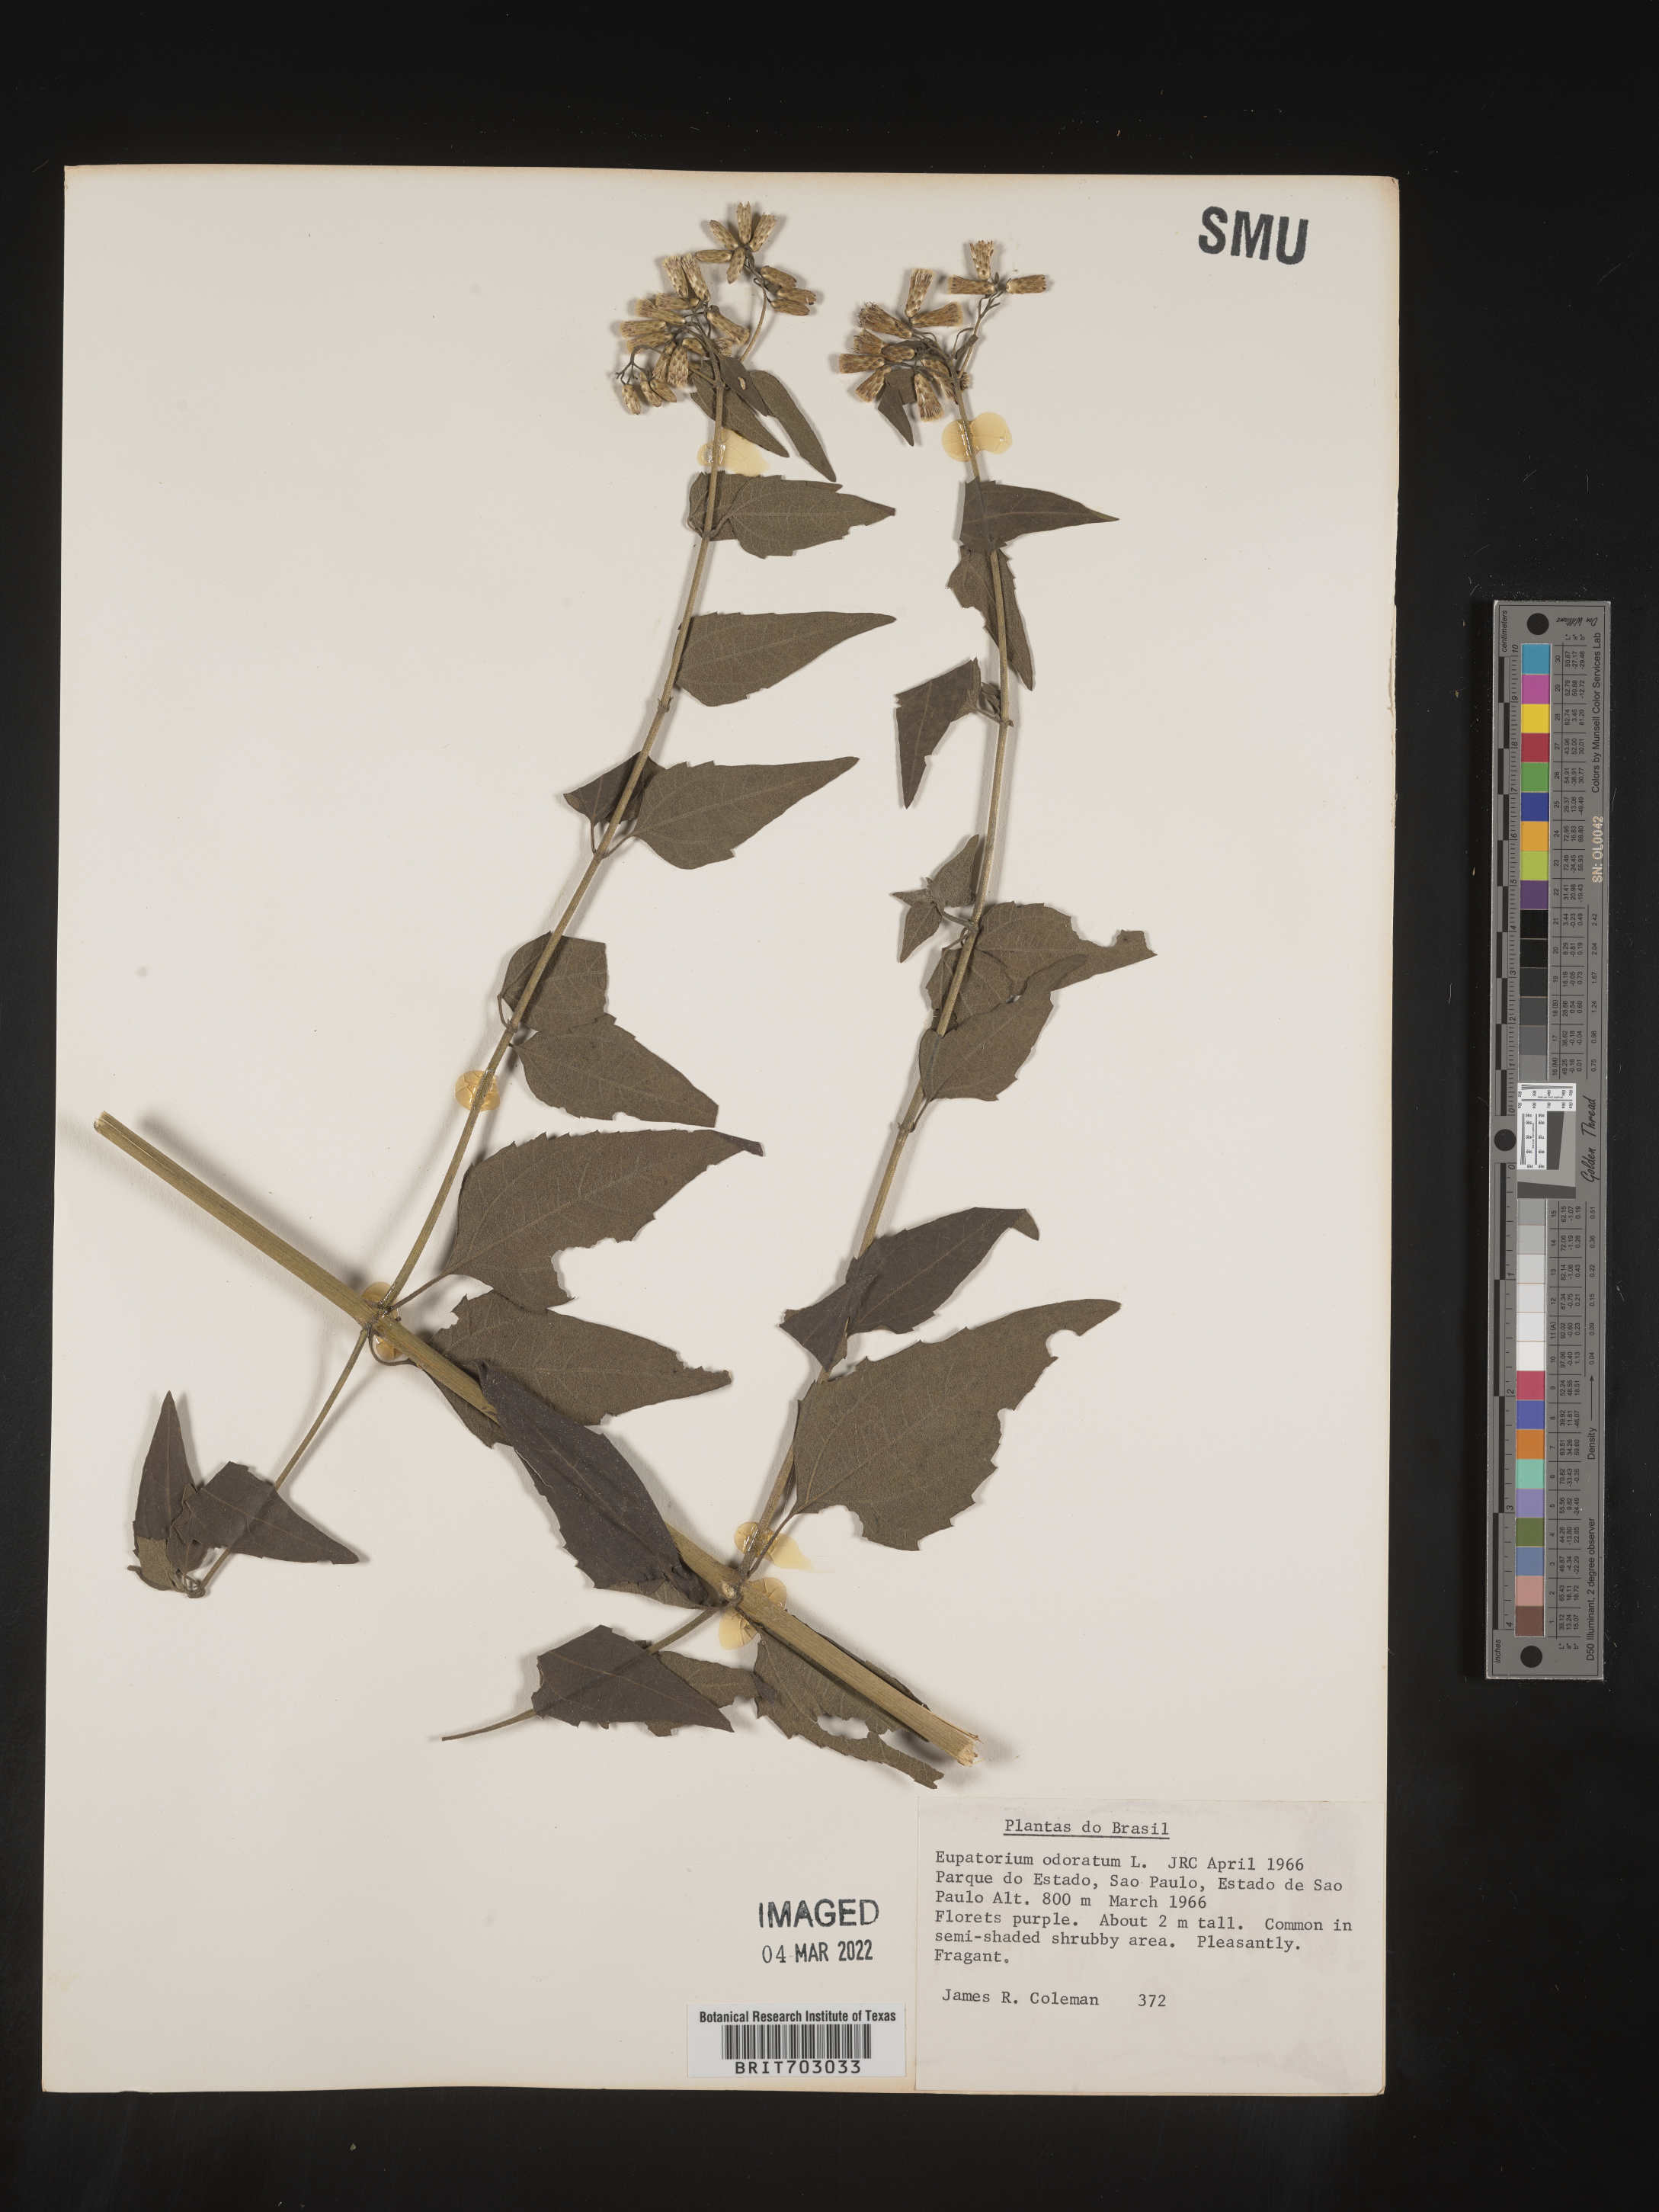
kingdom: Plantae
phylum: Tracheophyta
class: Magnoliopsida
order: Asterales
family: Asteraceae
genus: Eupatorium
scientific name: Eupatorium
